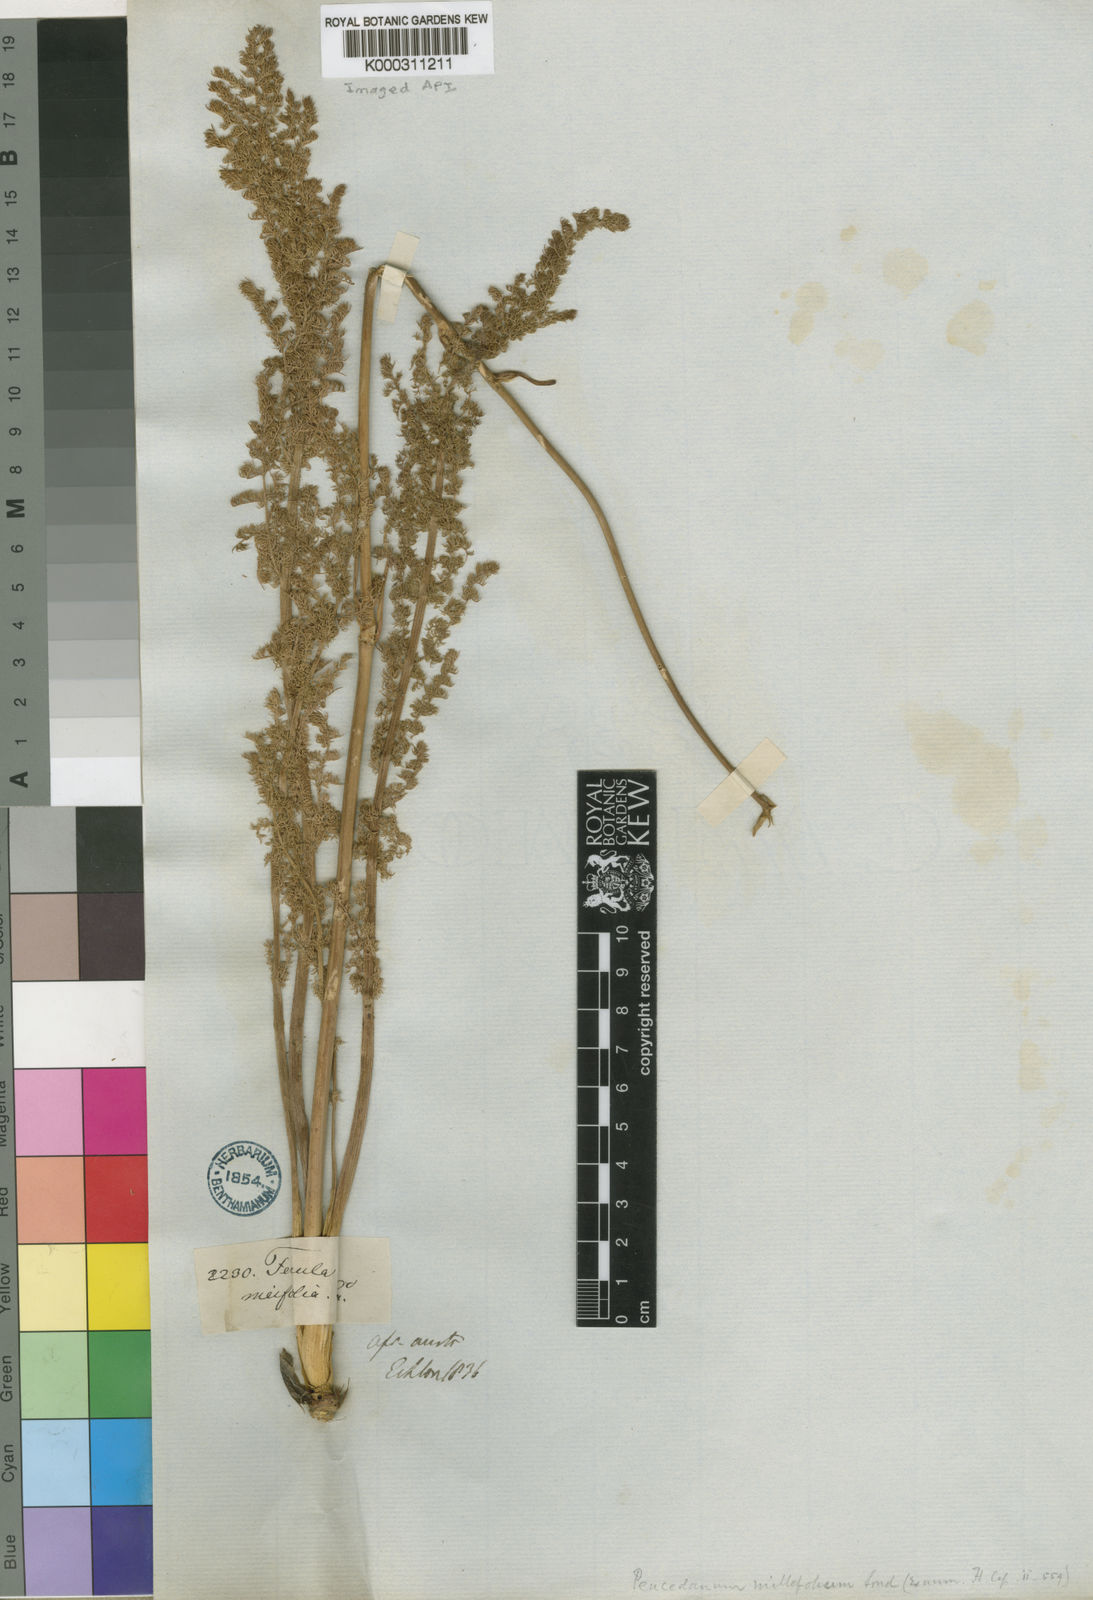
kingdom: Plantae
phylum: Tracheophyta
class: Magnoliopsida
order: Apiales
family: Apiaceae
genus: Cynorhiza
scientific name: Cynorhiza meifolia
